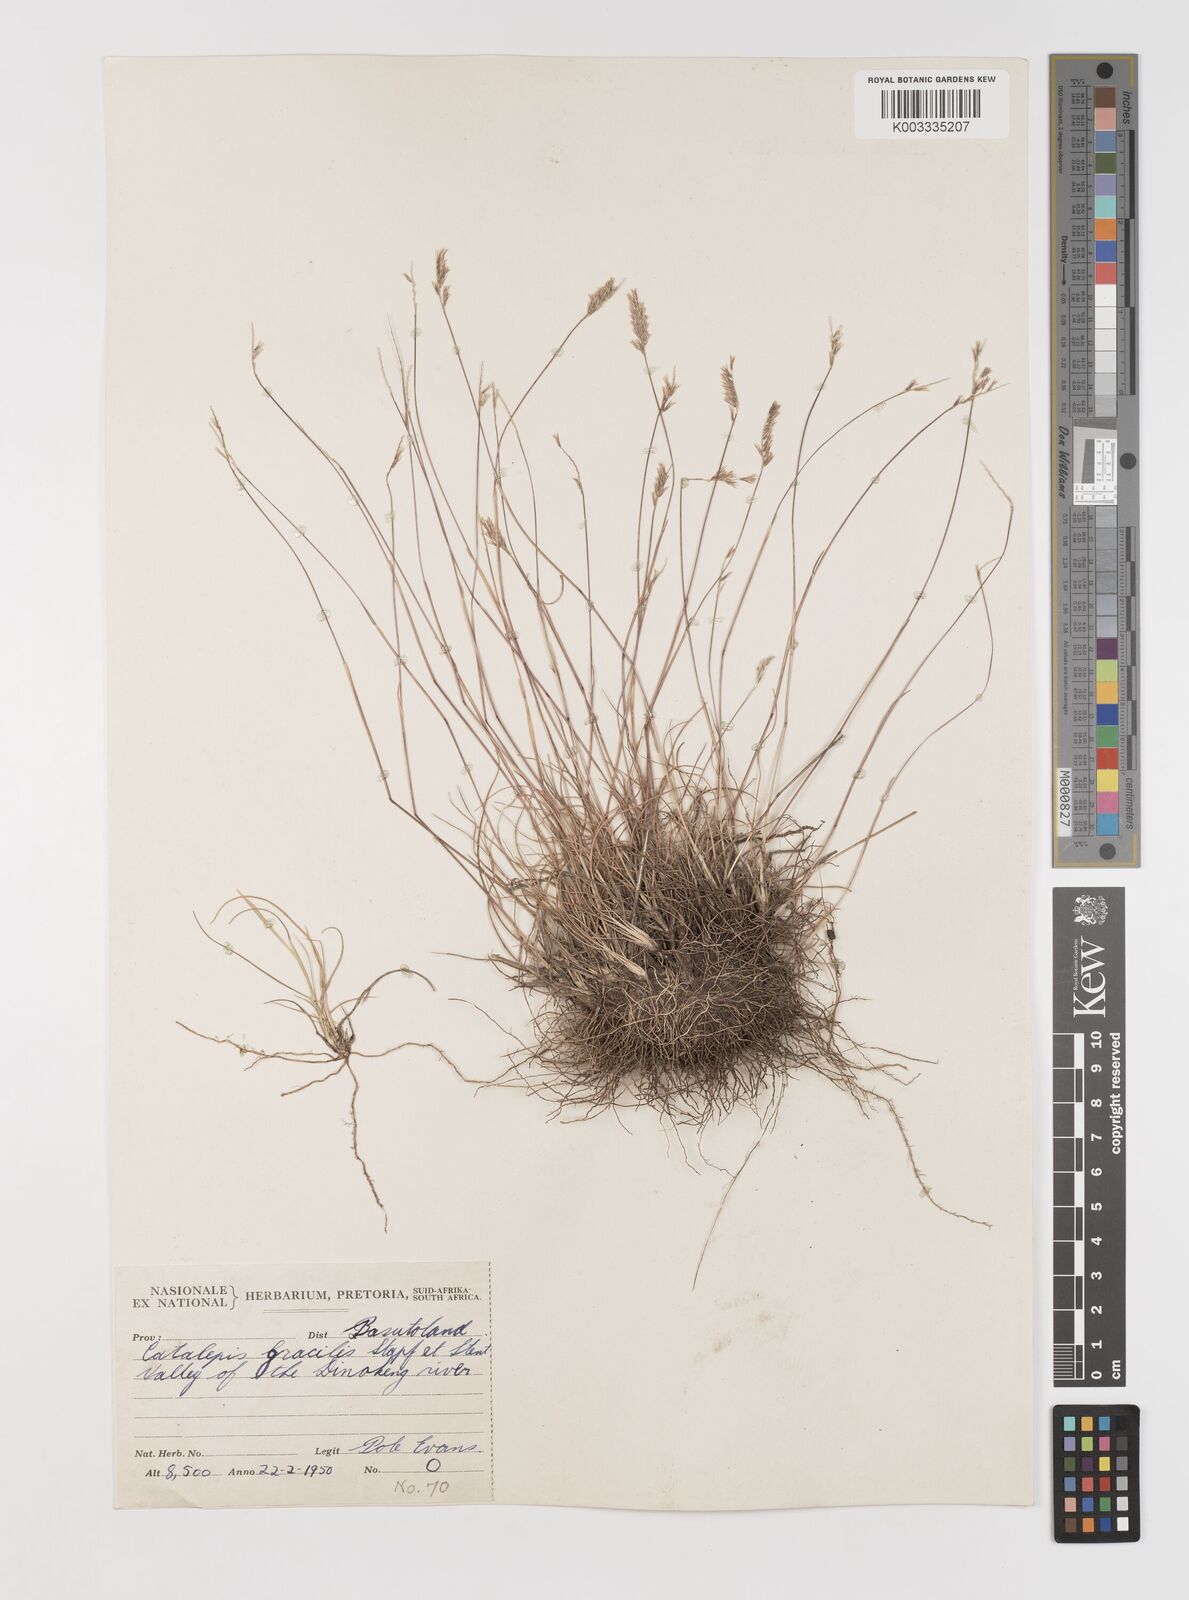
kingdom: Plantae
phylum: Tracheophyta
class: Liliopsida
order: Poales
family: Poaceae
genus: Catalepis
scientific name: Catalepis gracilis
